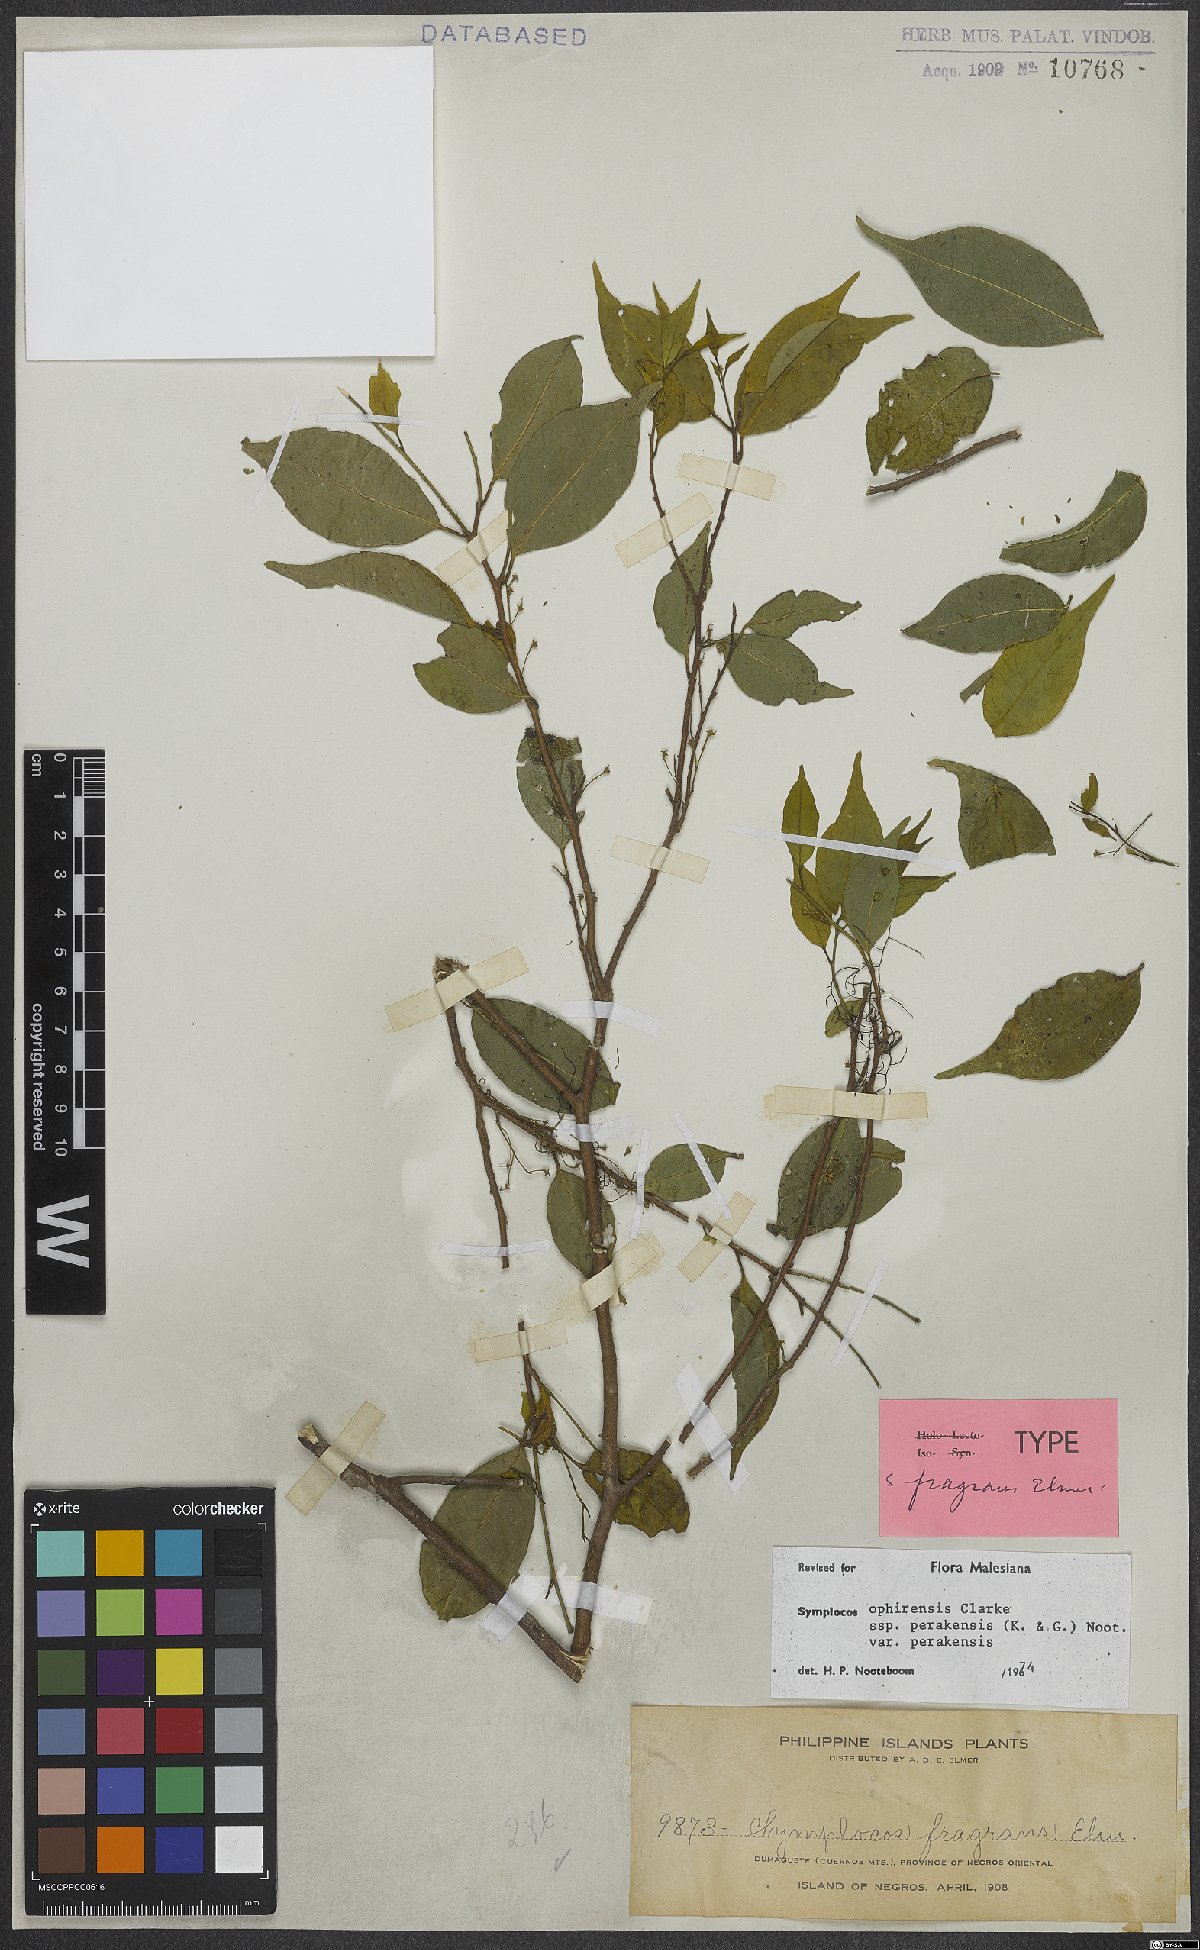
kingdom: Plantae
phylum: Tracheophyta
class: Magnoliopsida
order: Ericales
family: Symplocaceae
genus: Symplocos
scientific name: Symplocos ophirensis
